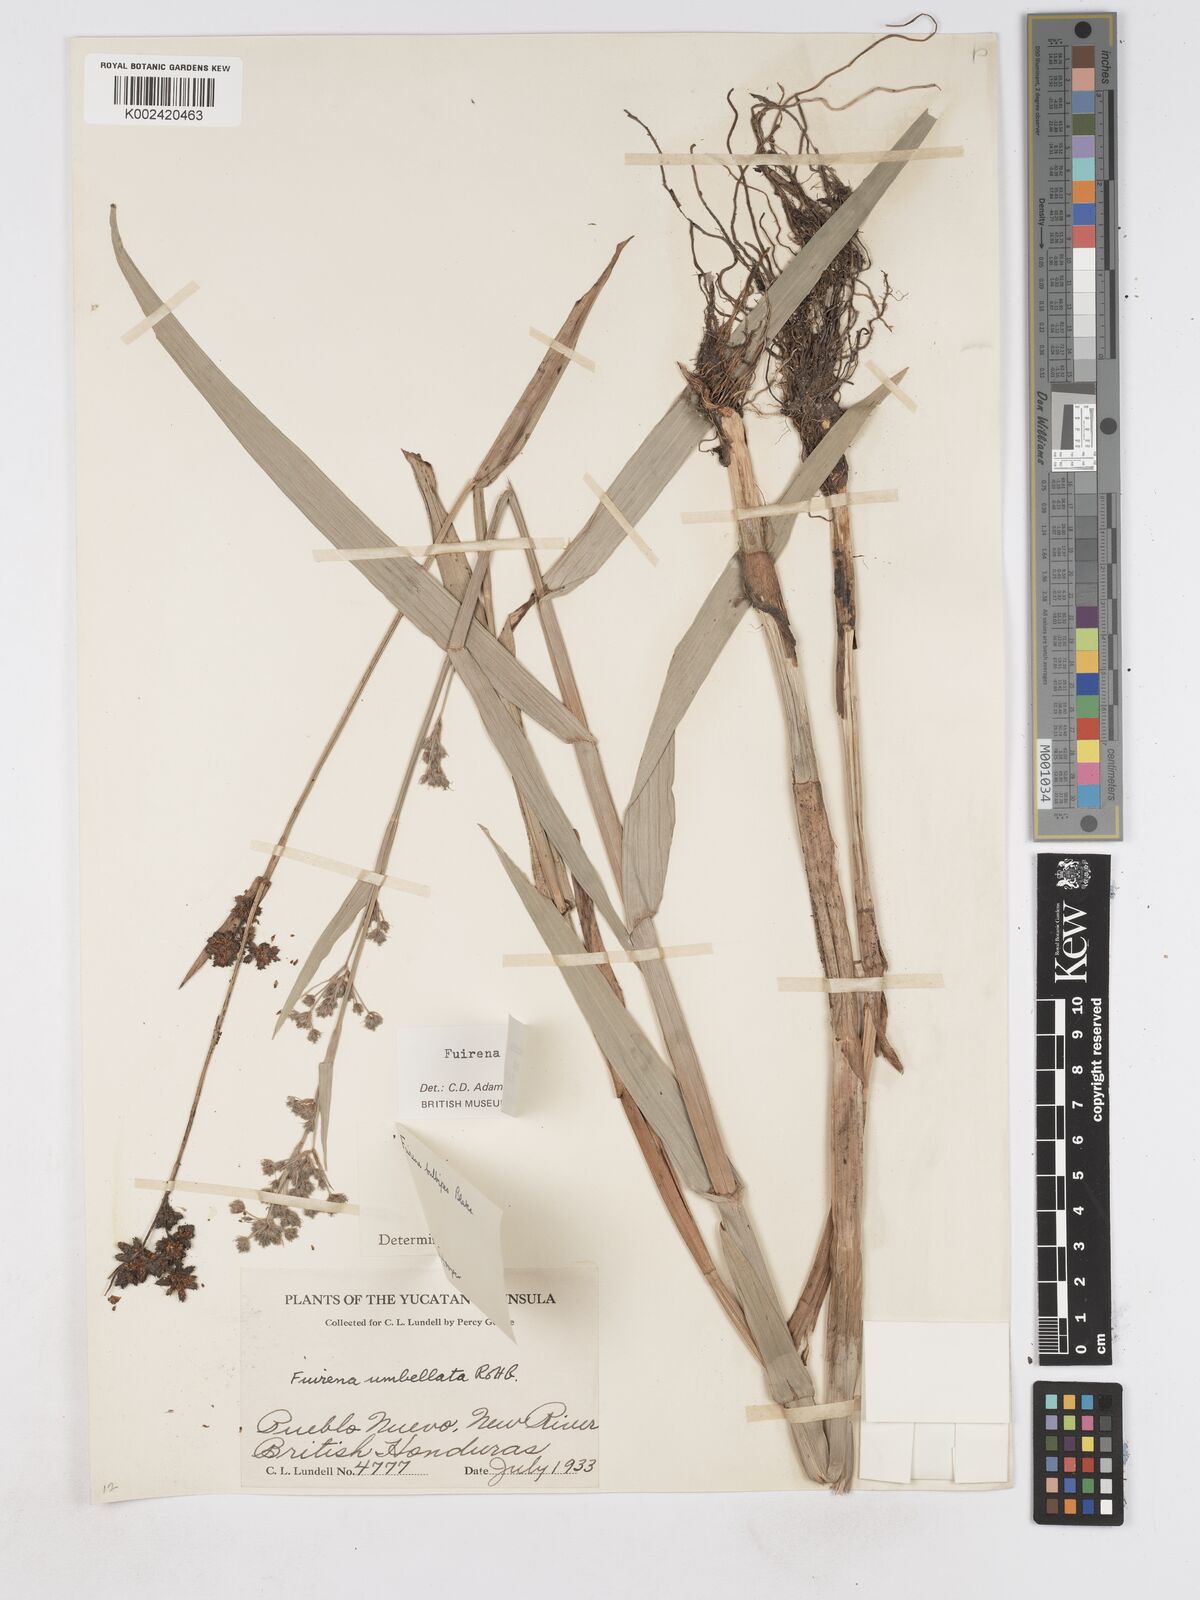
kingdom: Plantae
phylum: Tracheophyta
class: Liliopsida
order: Poales
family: Cyperaceae
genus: Fuirena
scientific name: Fuirena camptotricha
